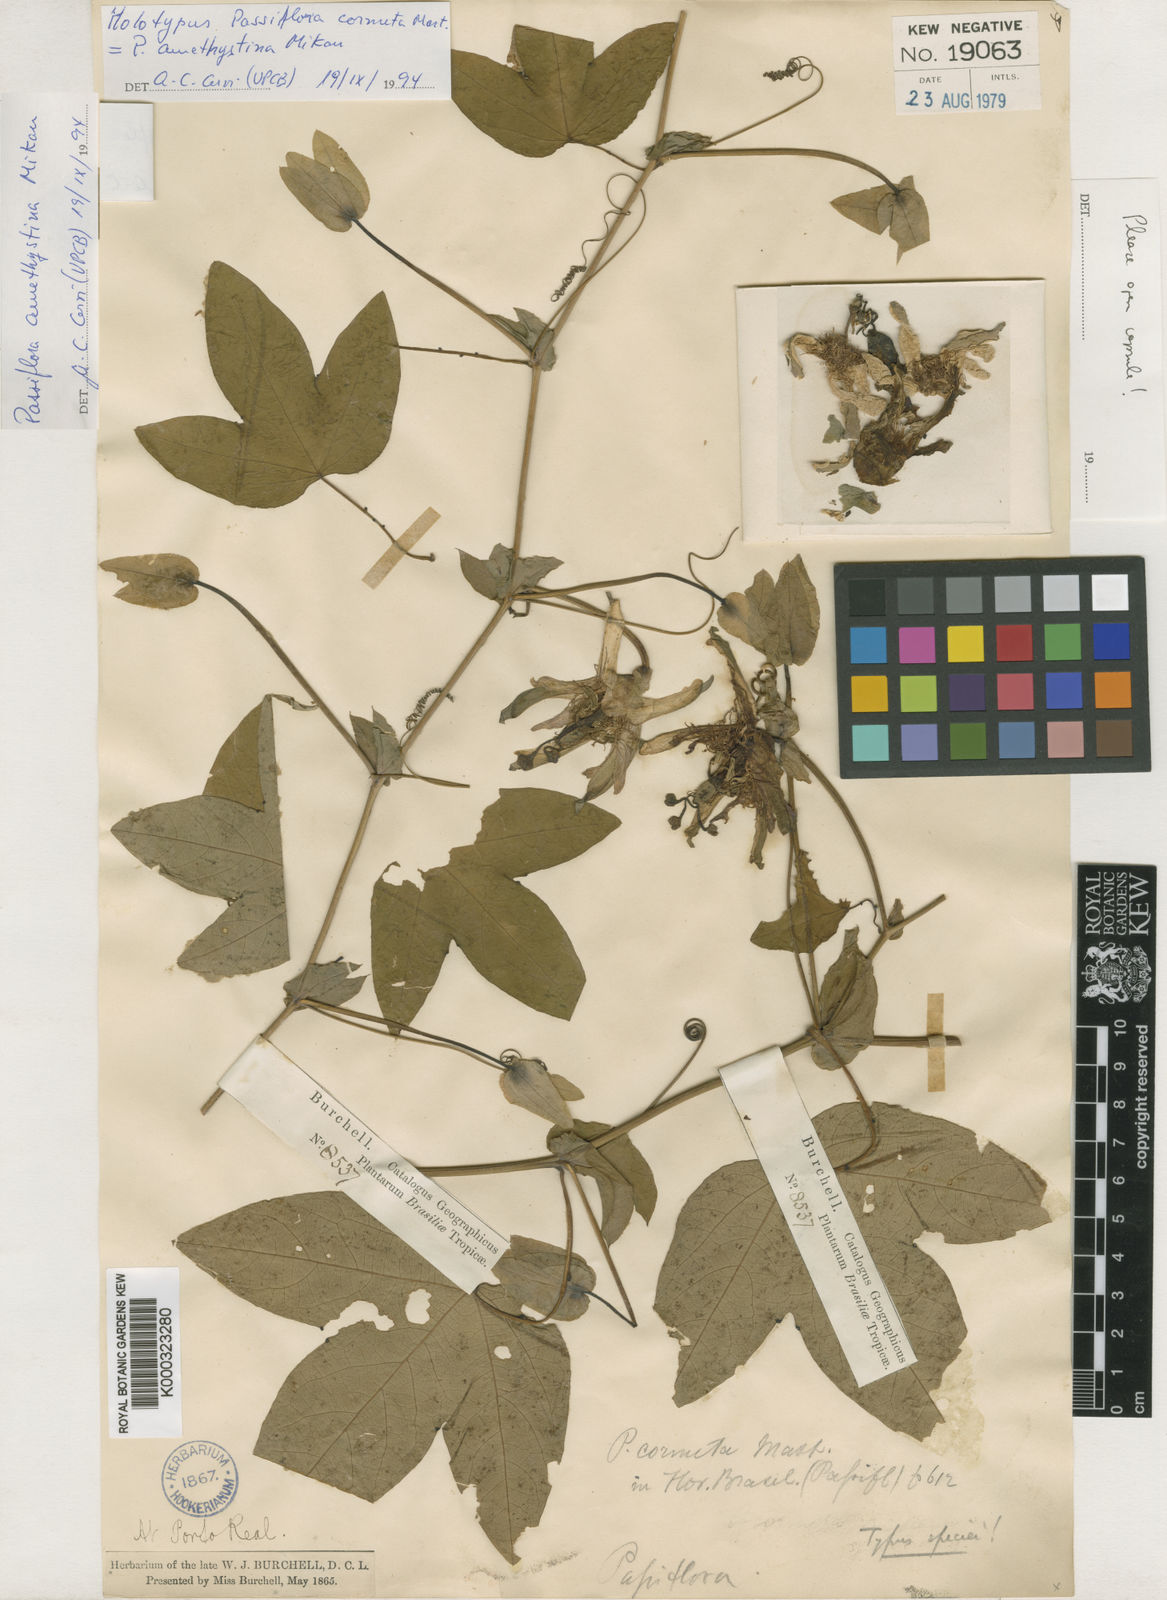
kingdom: Plantae
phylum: Tracheophyta
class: Magnoliopsida
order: Malpighiales
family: Passifloraceae
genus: Passiflora
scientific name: Passiflora amethystina
